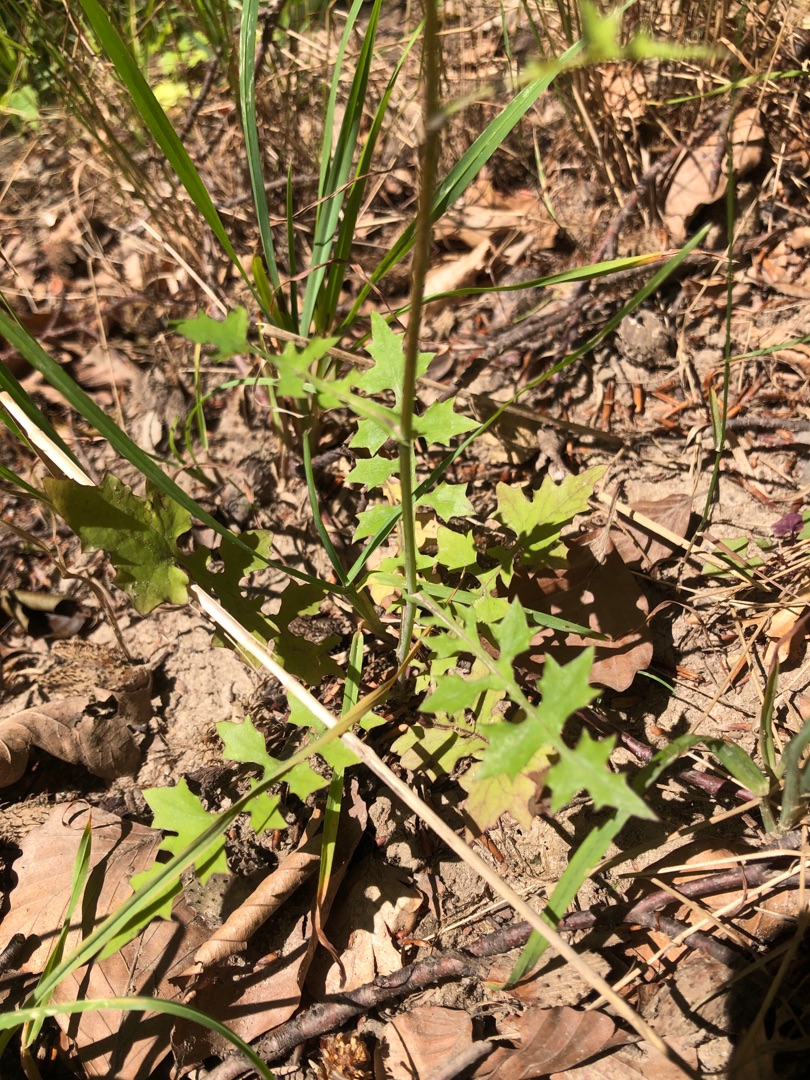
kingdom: Plantae
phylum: Tracheophyta
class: Magnoliopsida
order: Asterales
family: Asteraceae
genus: Mycelis
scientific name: Mycelis muralis
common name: Skov-salat
